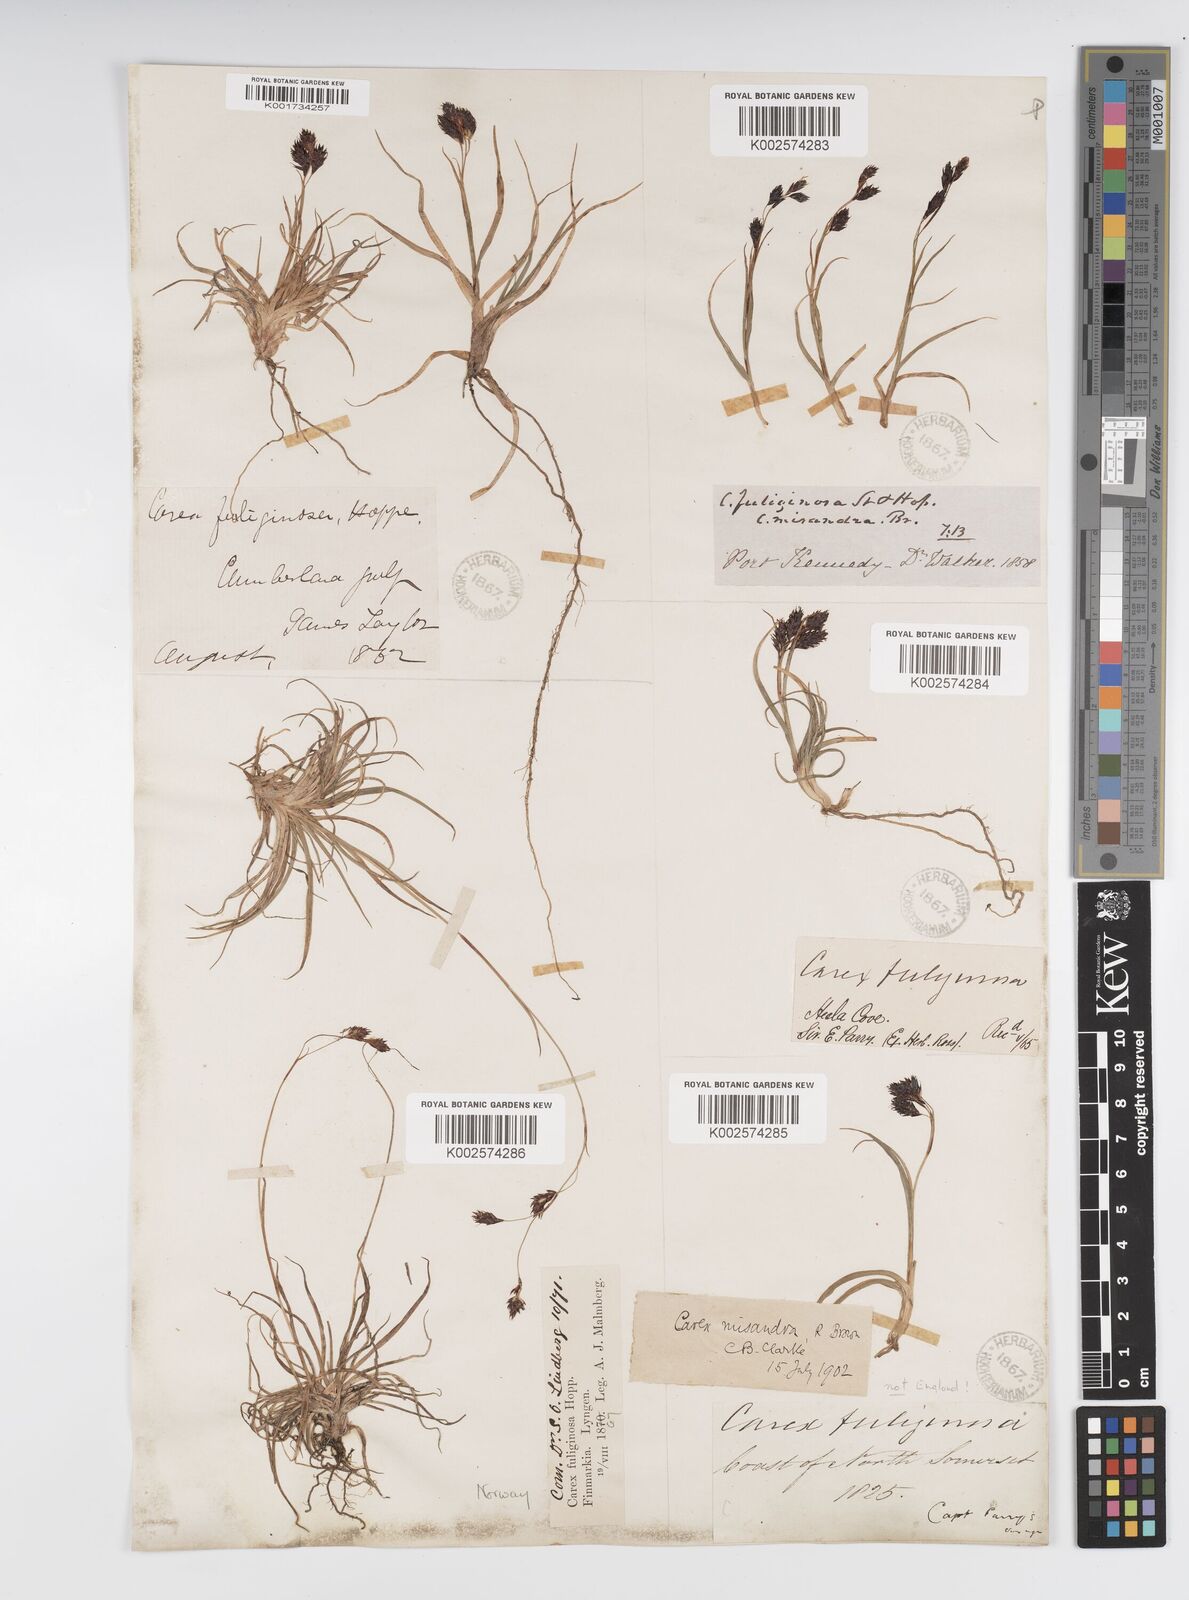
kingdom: Plantae
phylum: Tracheophyta
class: Liliopsida
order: Poales
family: Cyperaceae
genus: Carex
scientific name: Carex fuliginosa
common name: Few-flowered sedge
